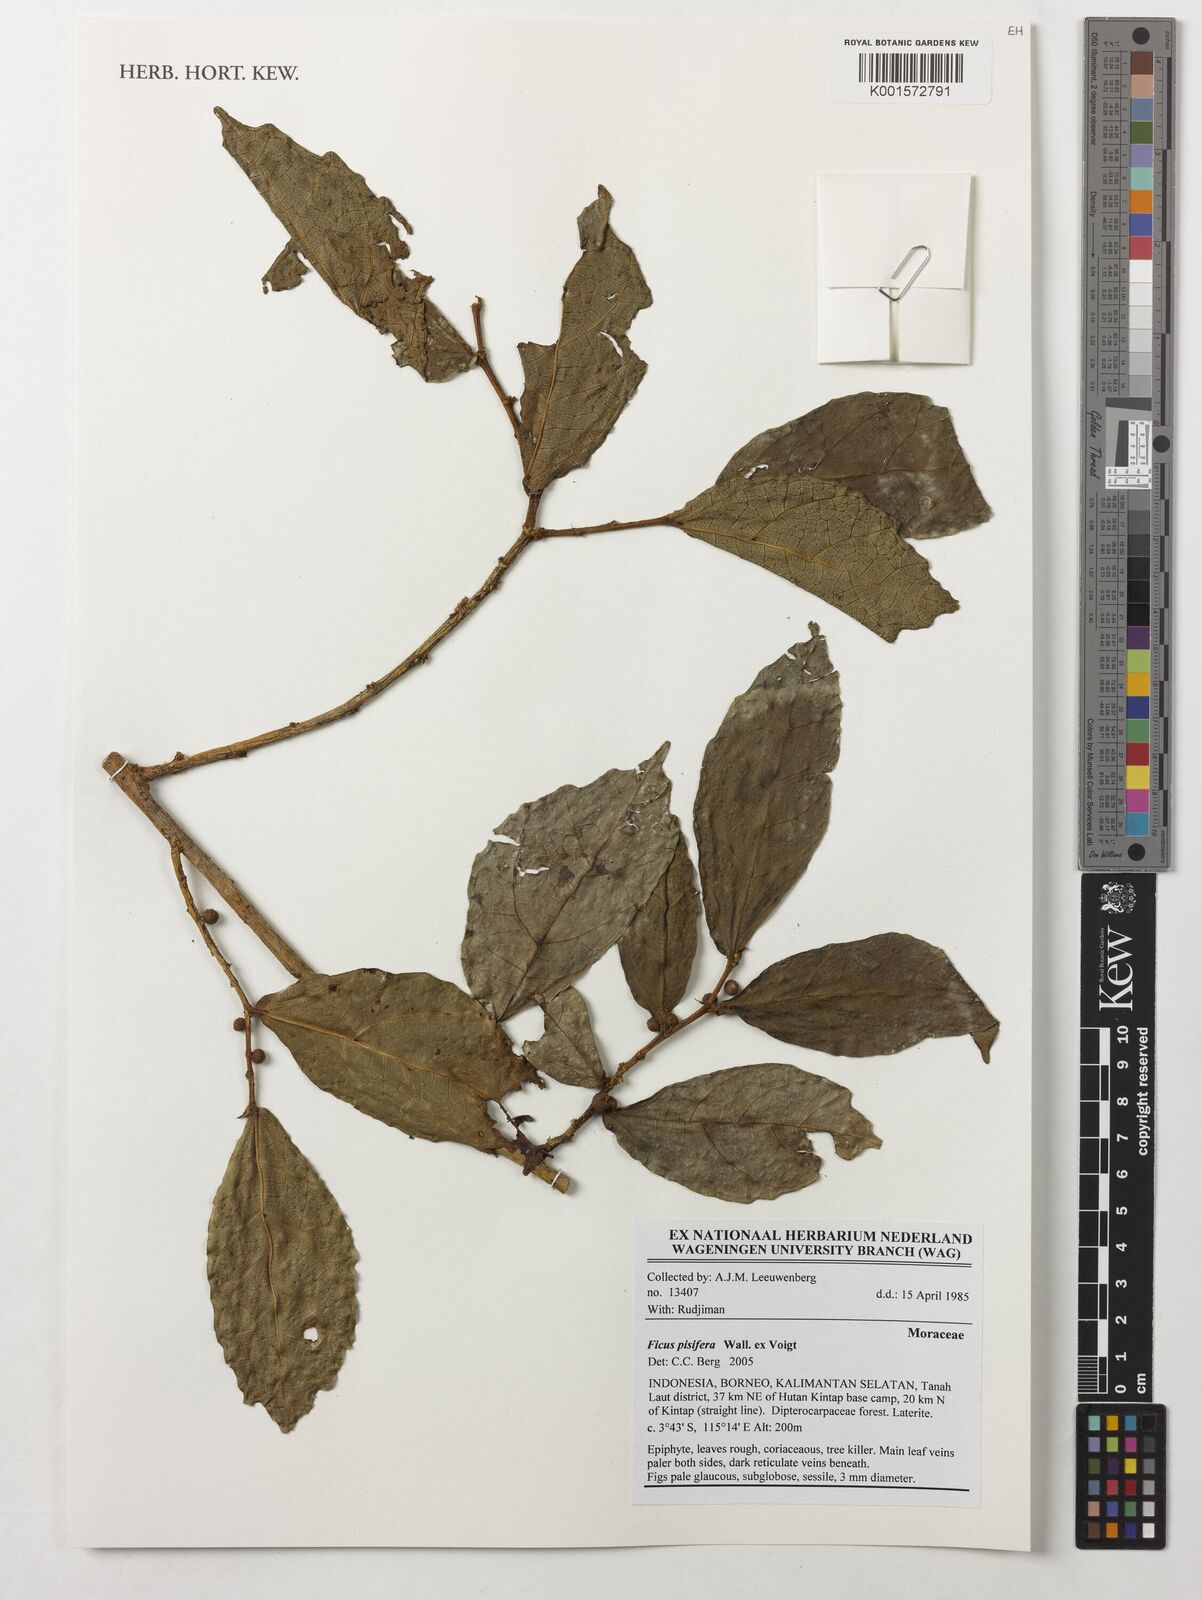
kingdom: Plantae
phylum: Tracheophyta
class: Magnoliopsida
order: Rosales
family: Moraceae
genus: Ficus
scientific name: Ficus scaberrima
